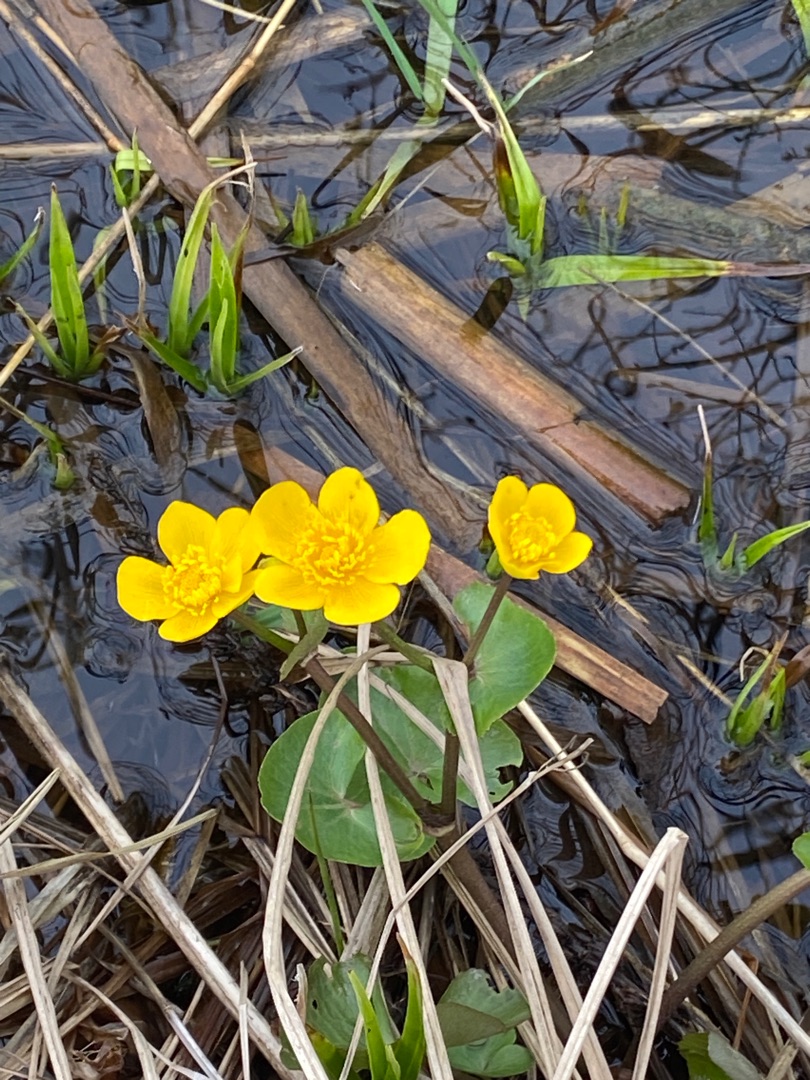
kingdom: Plantae
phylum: Tracheophyta
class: Magnoliopsida
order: Ranunculales
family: Ranunculaceae
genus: Caltha
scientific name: Caltha palustris
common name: Eng-kabbeleje
